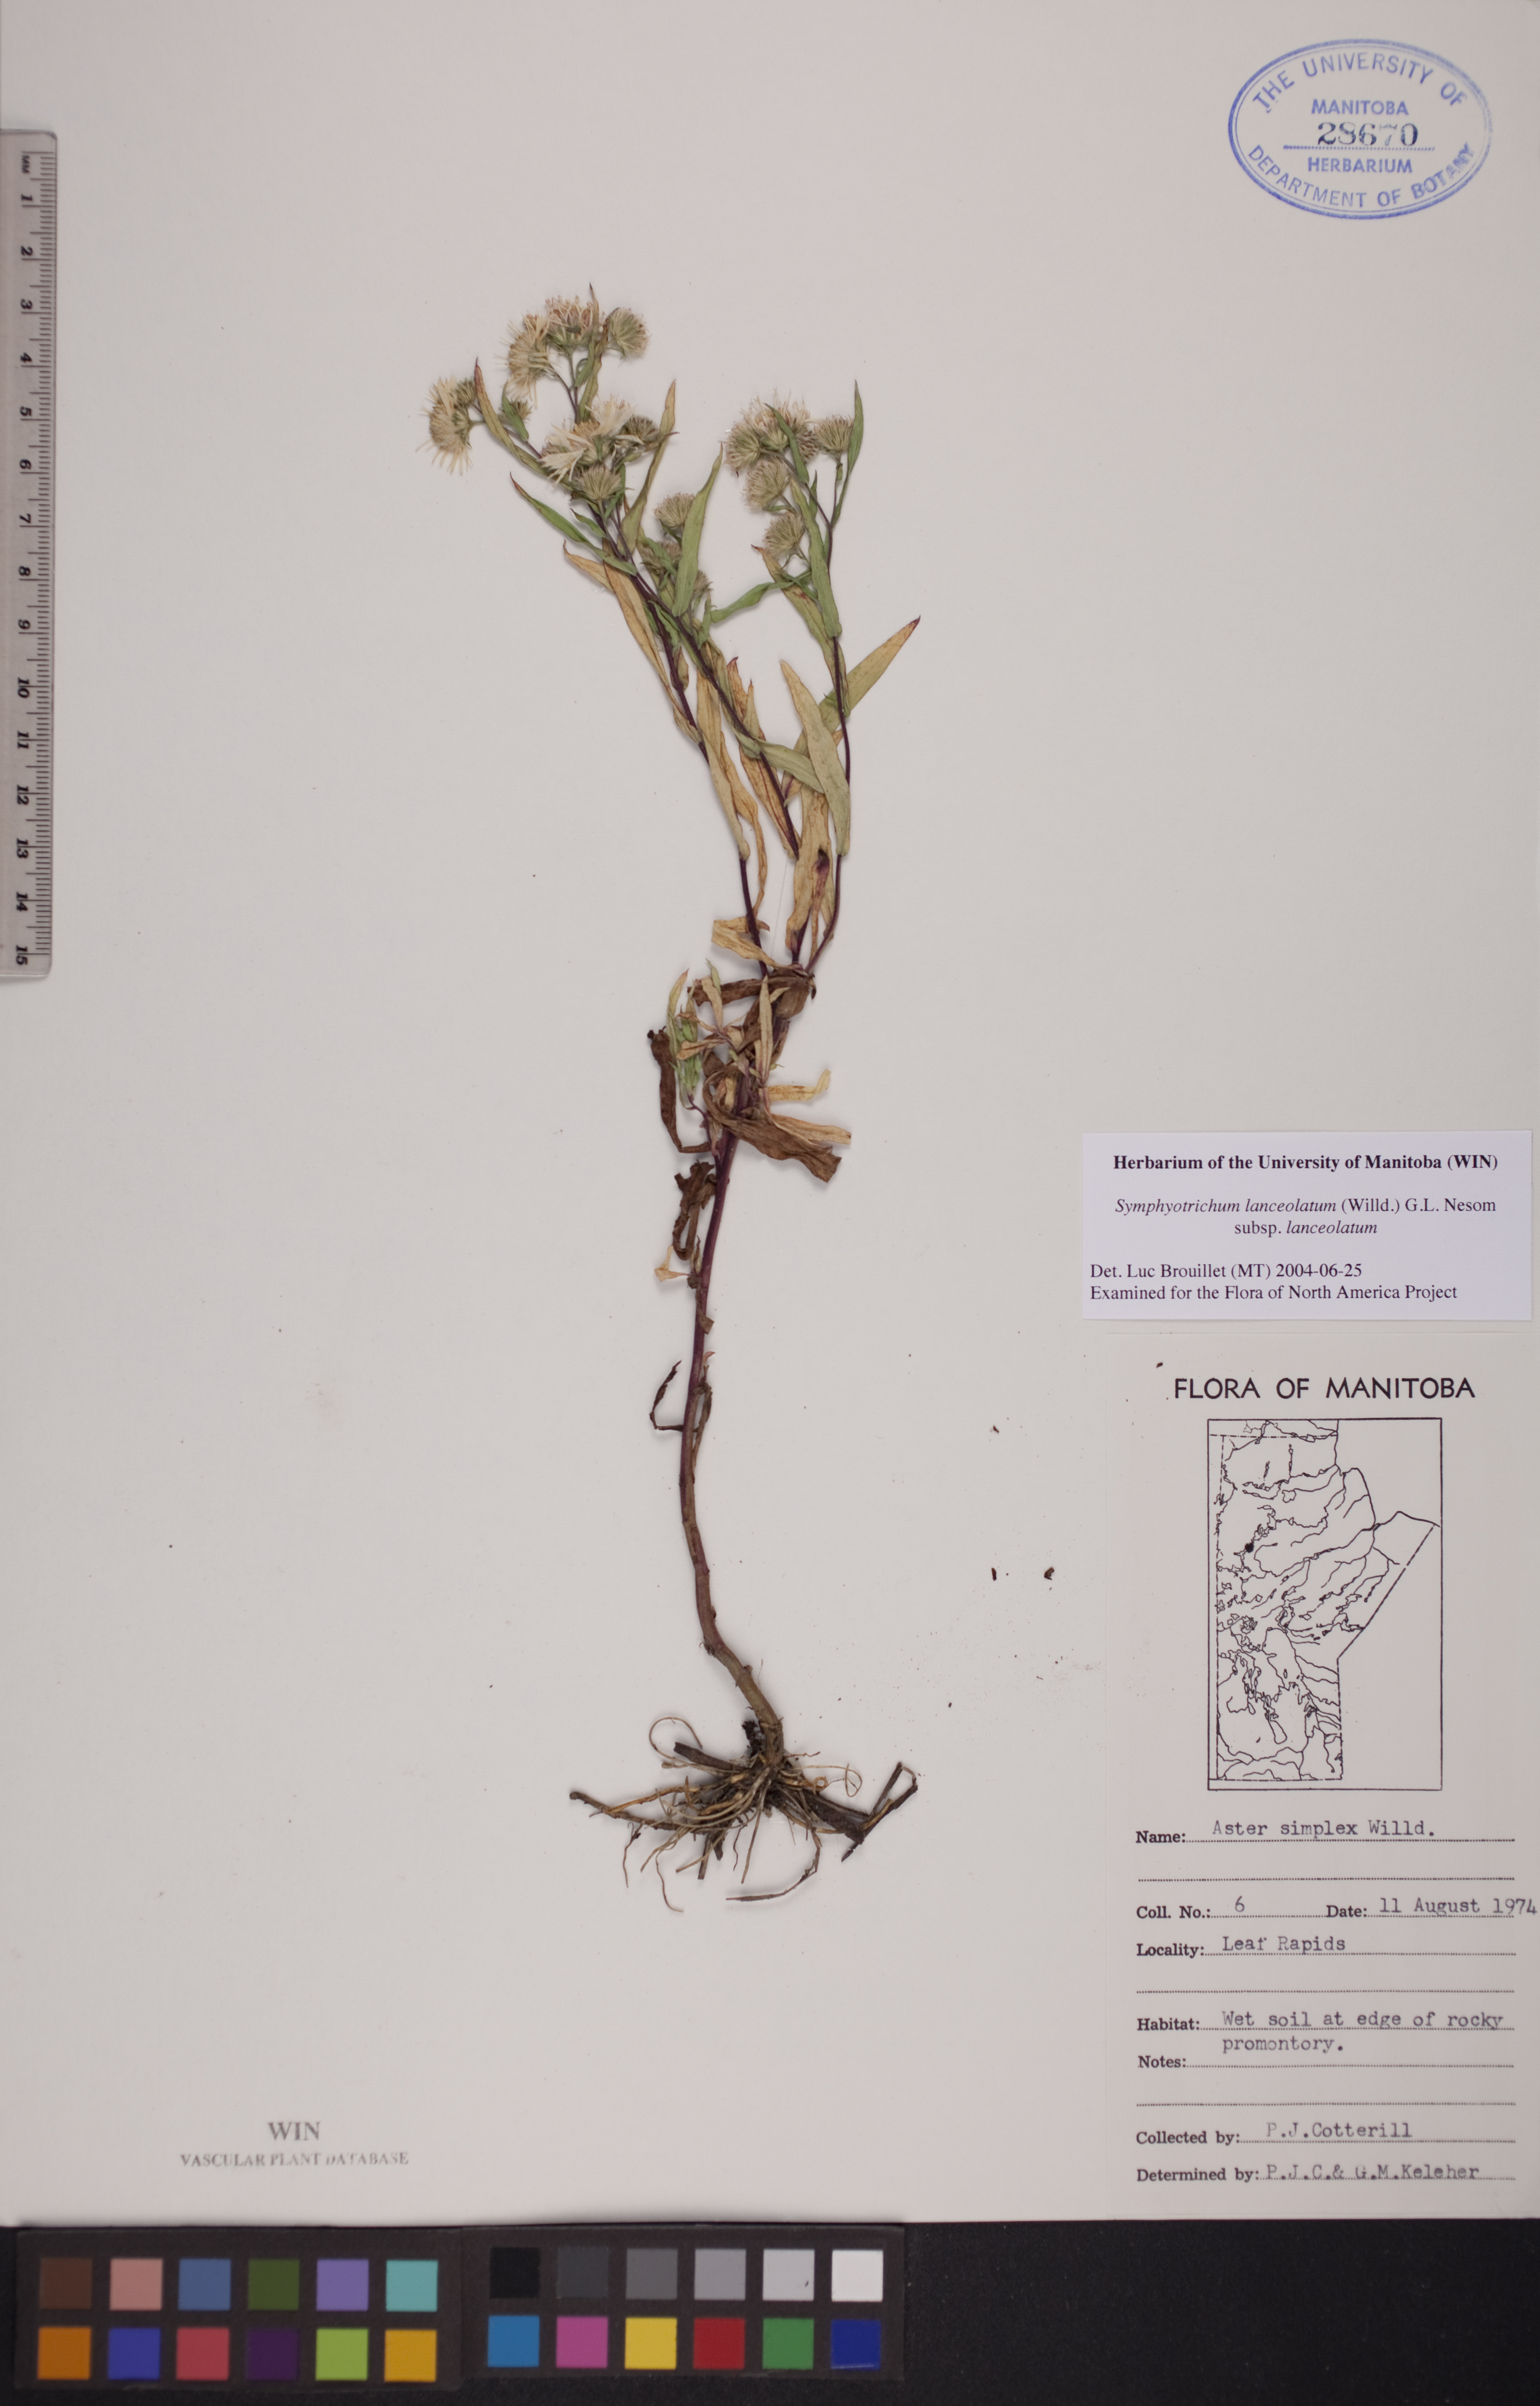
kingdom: Plantae
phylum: Tracheophyta
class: Magnoliopsida
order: Asterales
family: Asteraceae
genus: Symphyotrichum
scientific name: Symphyotrichum lanceolatum
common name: Panicled aster
